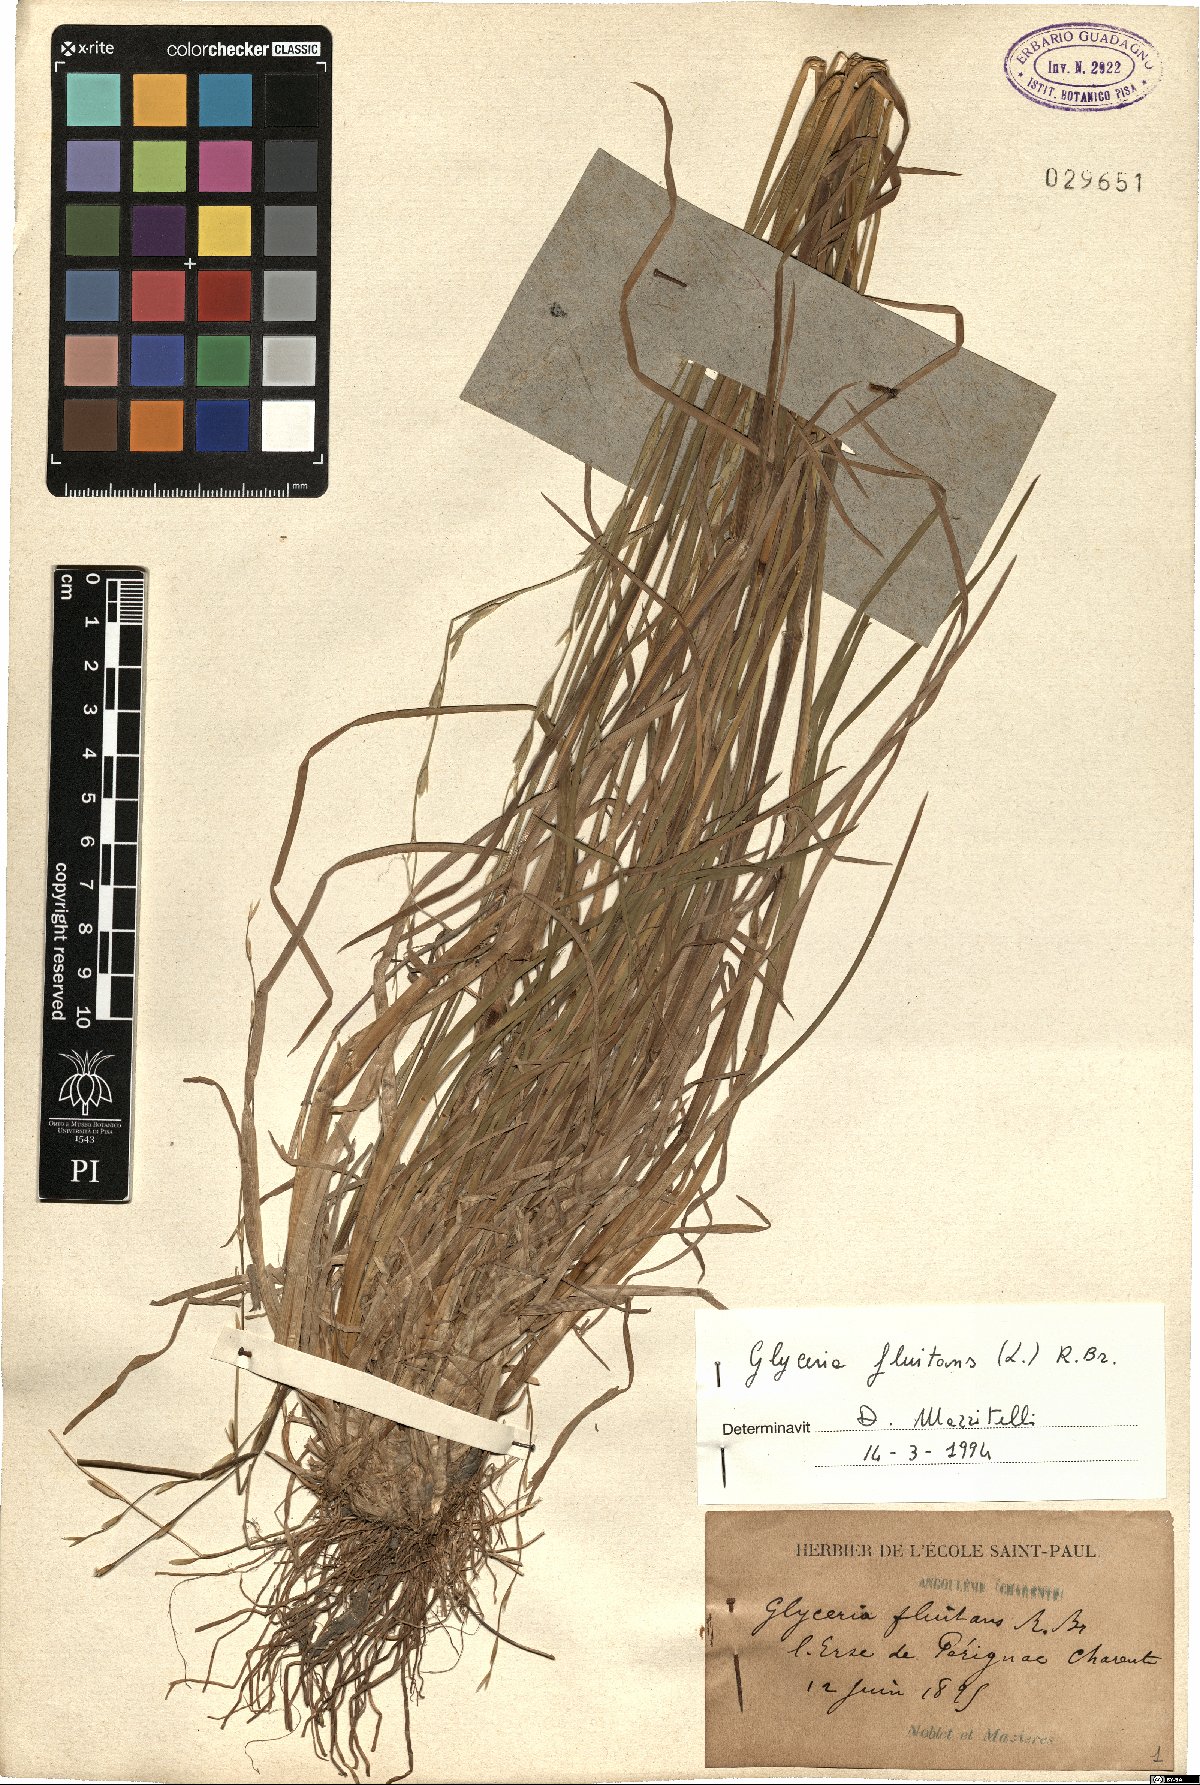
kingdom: Plantae
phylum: Tracheophyta
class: Liliopsida
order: Poales
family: Poaceae
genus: Glyceria
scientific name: Glyceria fluitans
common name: Floating sweet-grass
